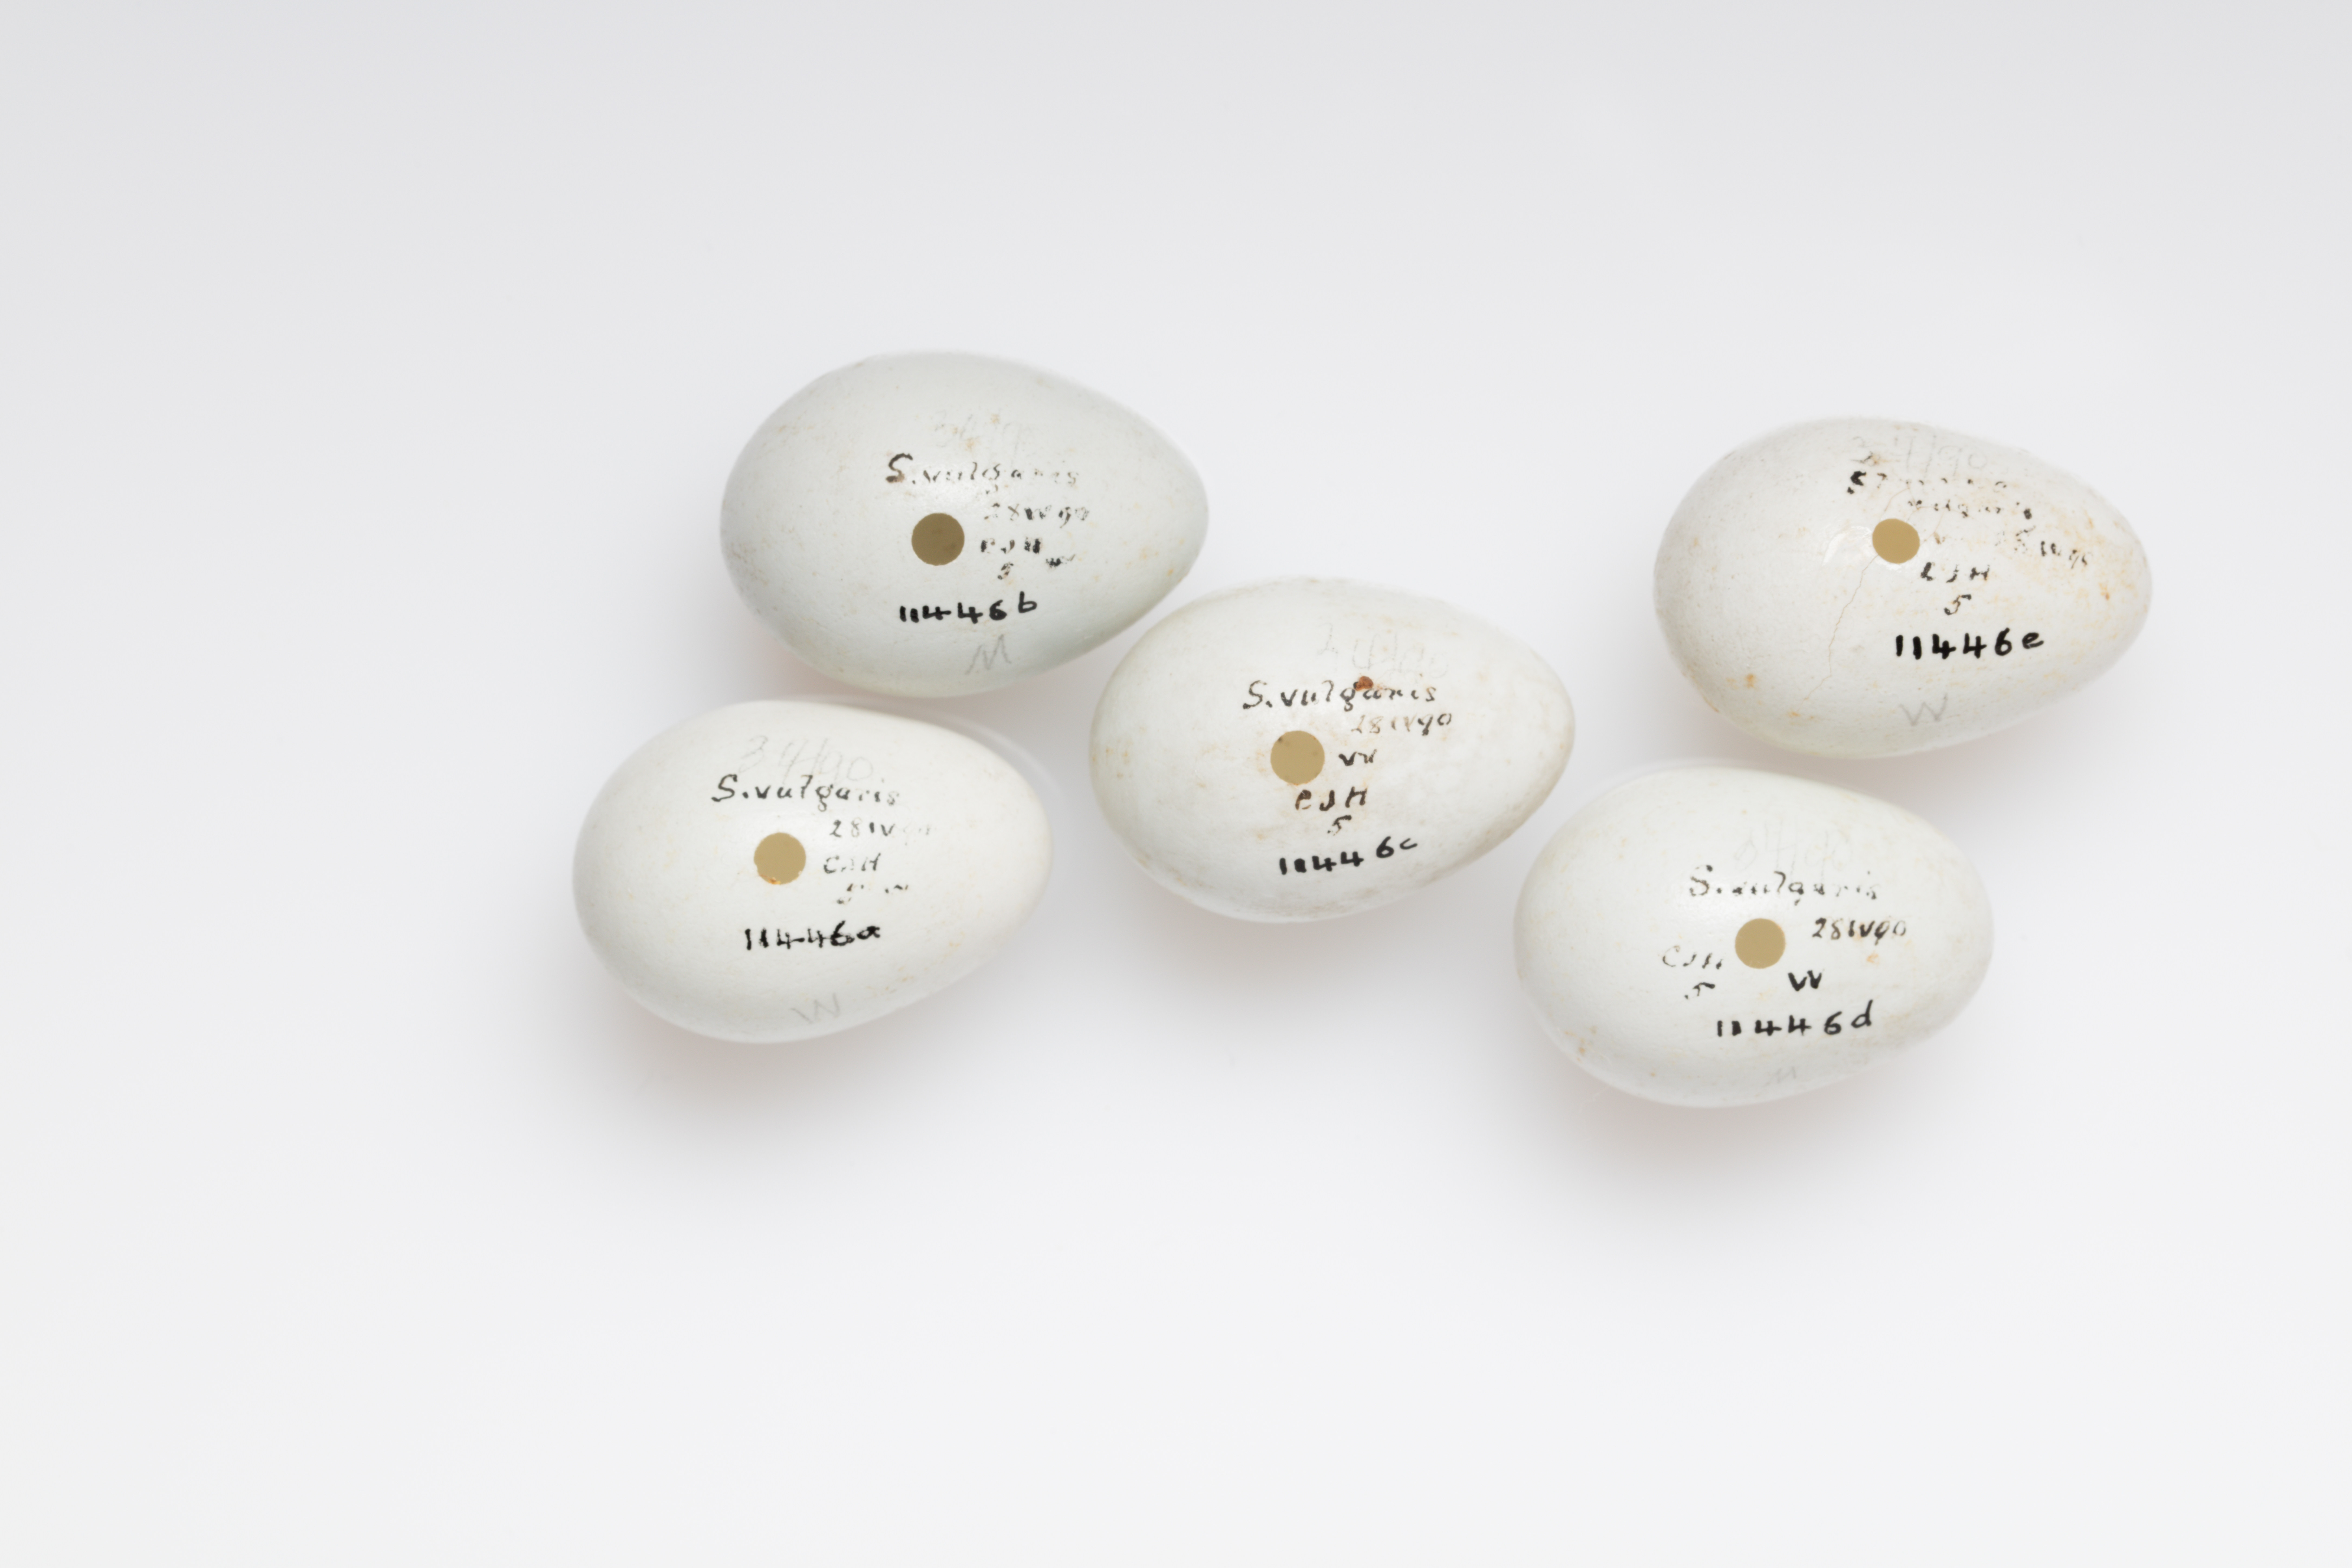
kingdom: Animalia
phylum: Chordata
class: Aves
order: Passeriformes
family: Sturnidae
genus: Sturnus
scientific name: Sturnus vulgaris
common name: Common starling
